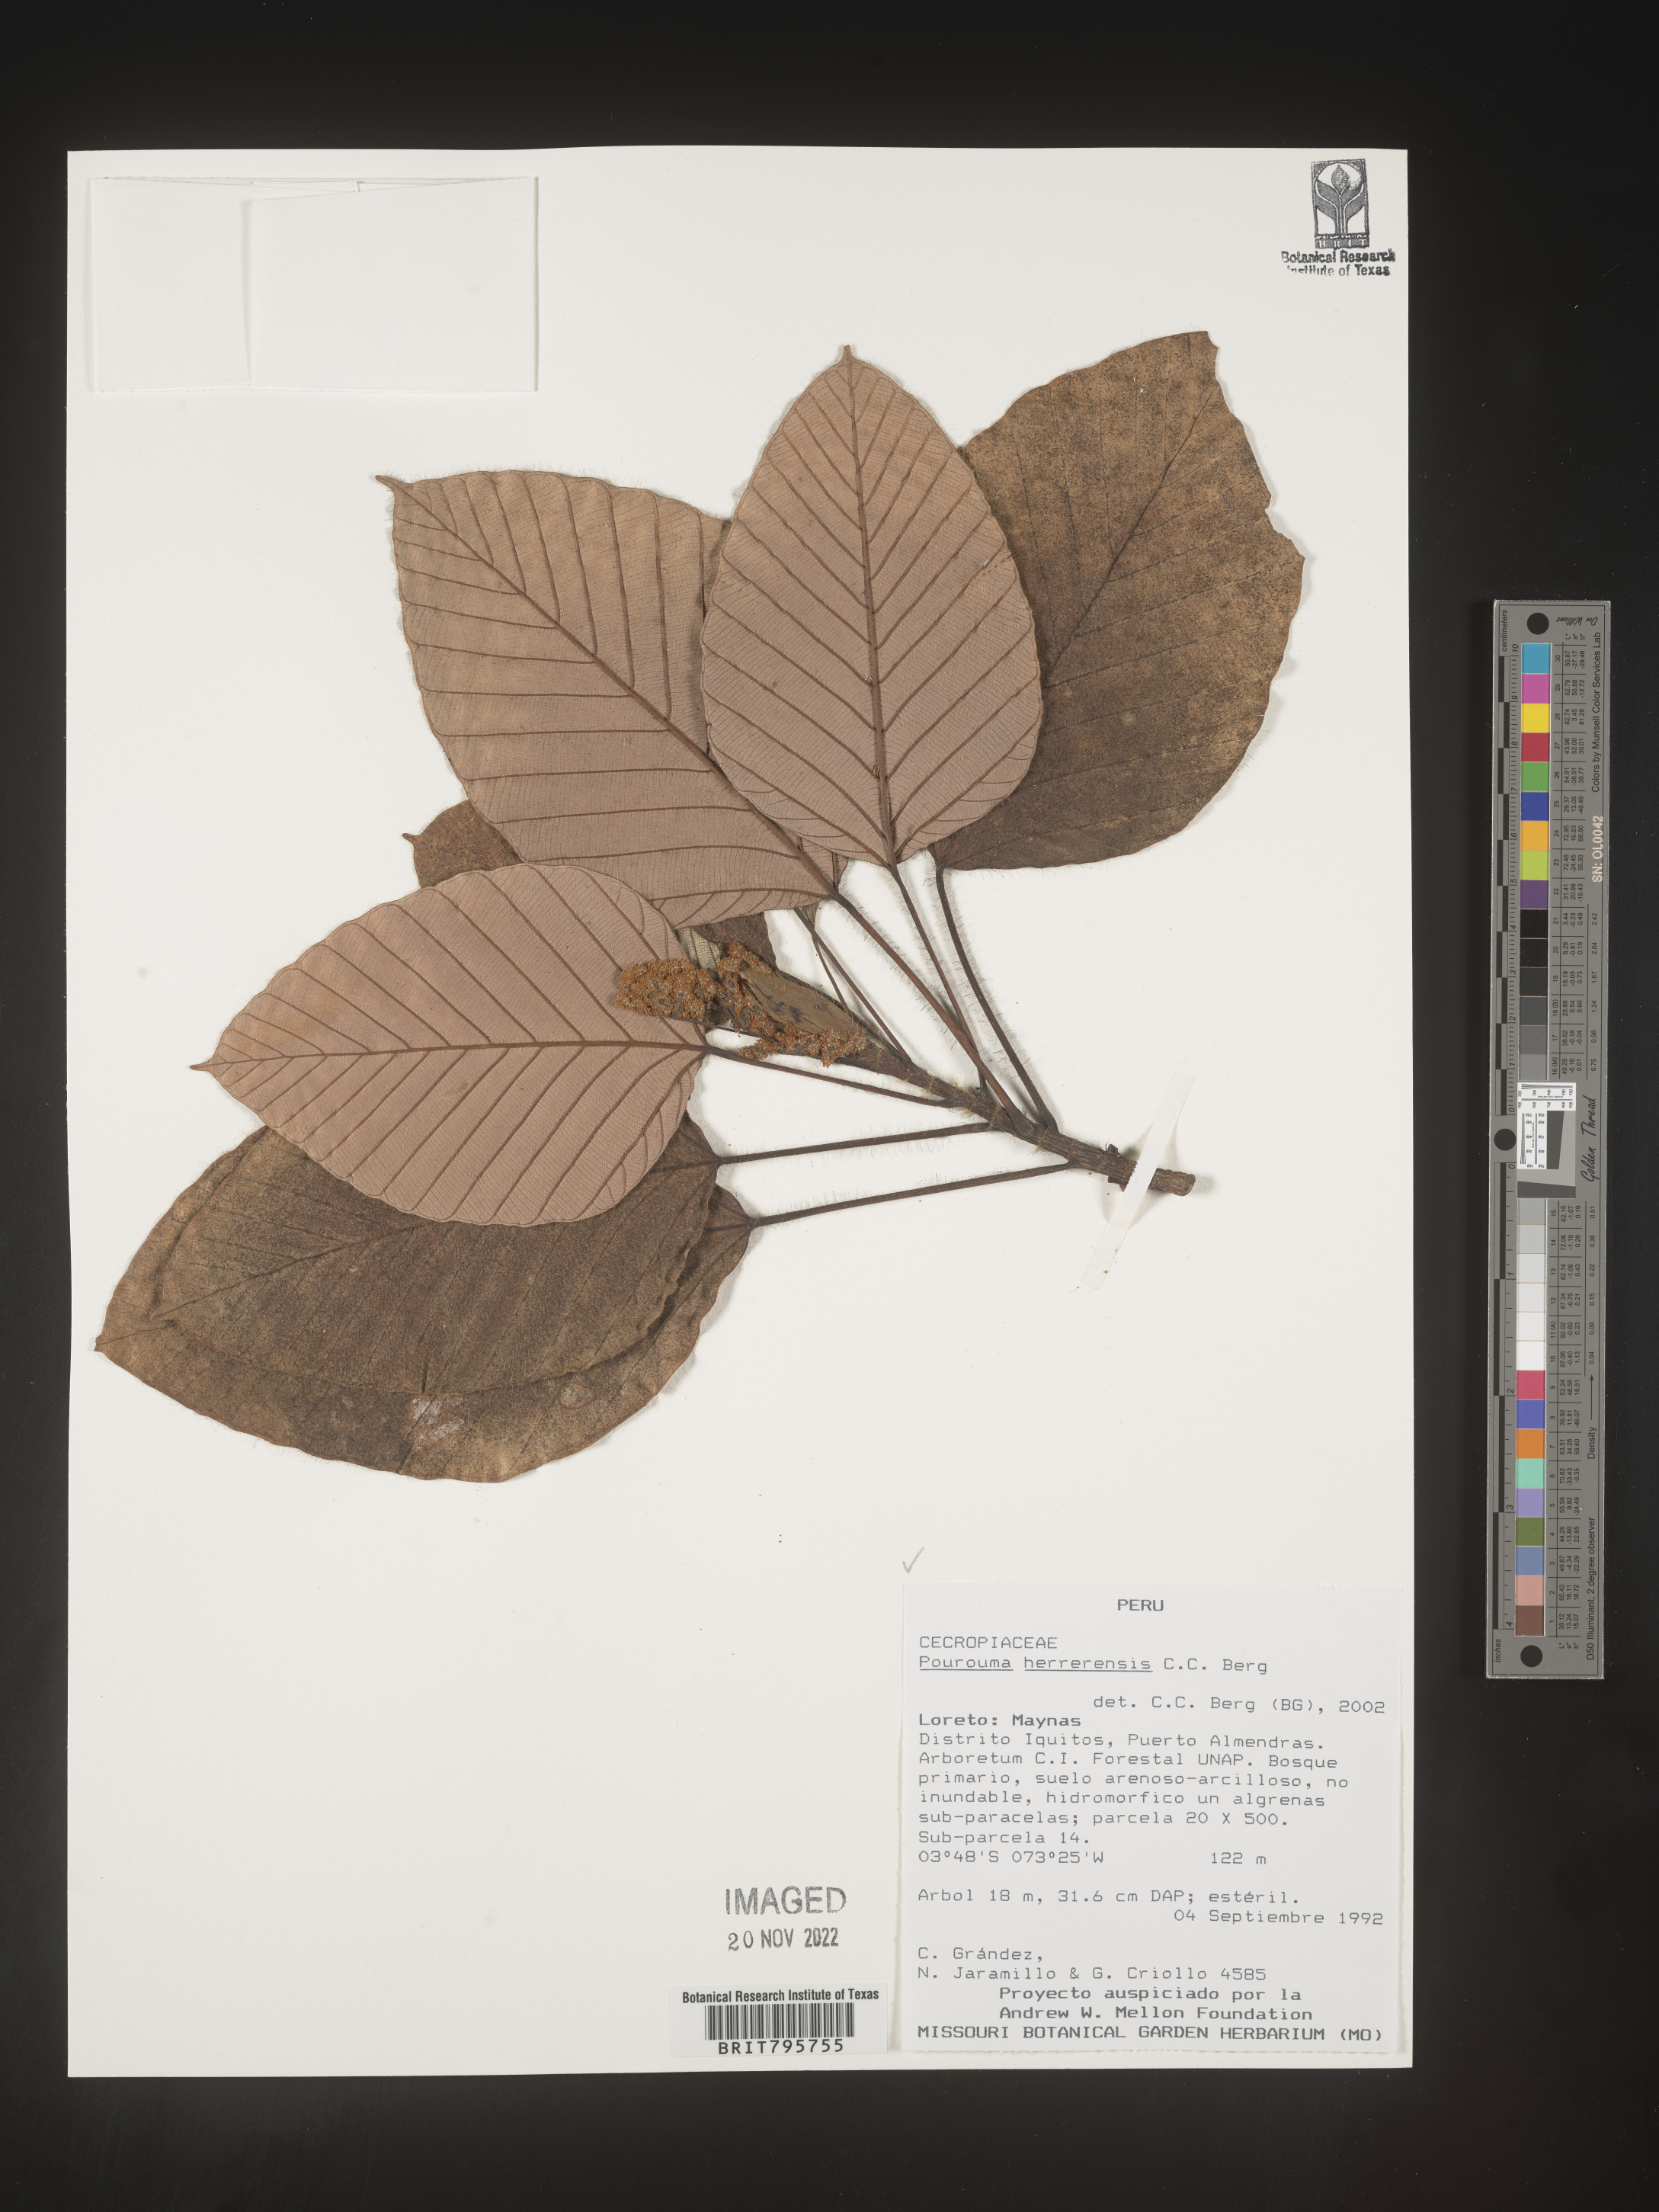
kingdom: Plantae
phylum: Tracheophyta
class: Magnoliopsida
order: Rosales
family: Urticaceae
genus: Pourouma
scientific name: Pourouma
